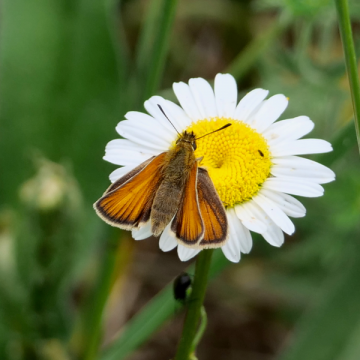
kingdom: Animalia
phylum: Arthropoda
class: Insecta
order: Lepidoptera
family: Hesperiidae
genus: Thymelicus
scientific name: Thymelicus lineola
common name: European Skipper
